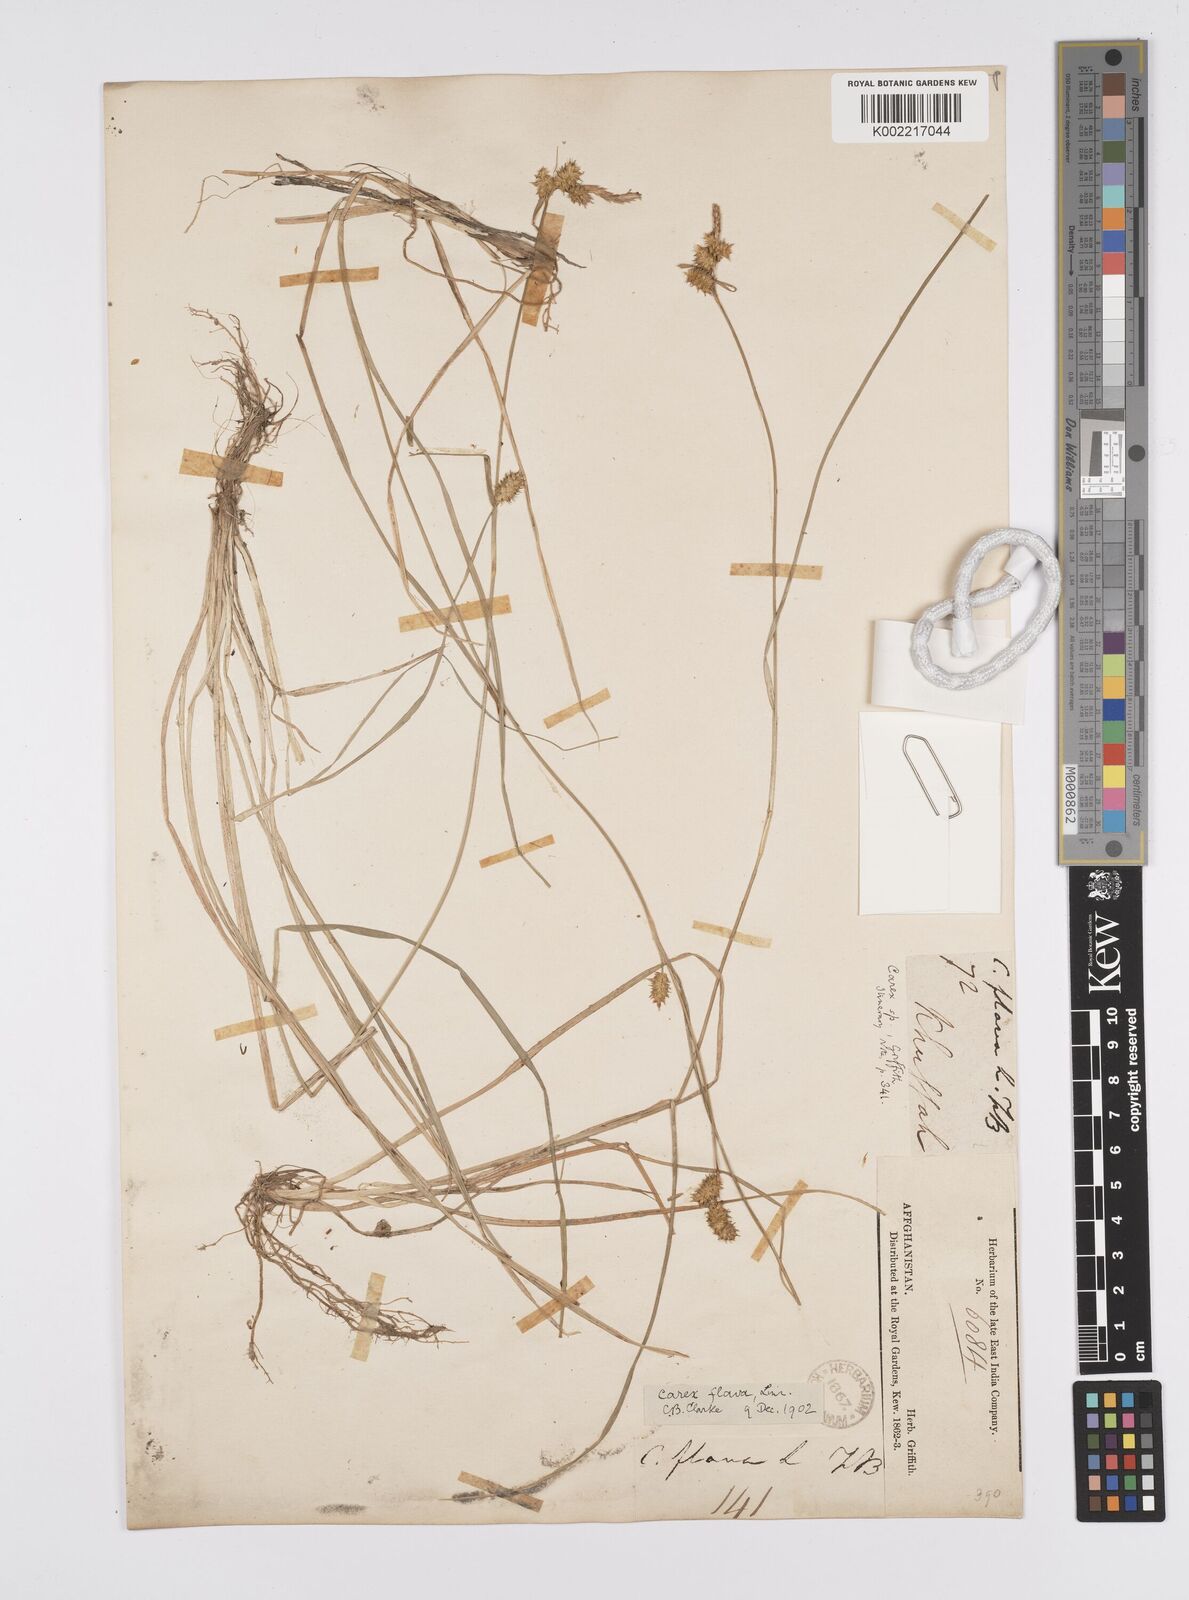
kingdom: Plantae
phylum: Tracheophyta
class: Liliopsida
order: Poales
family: Cyperaceae
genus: Carex
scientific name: Carex
